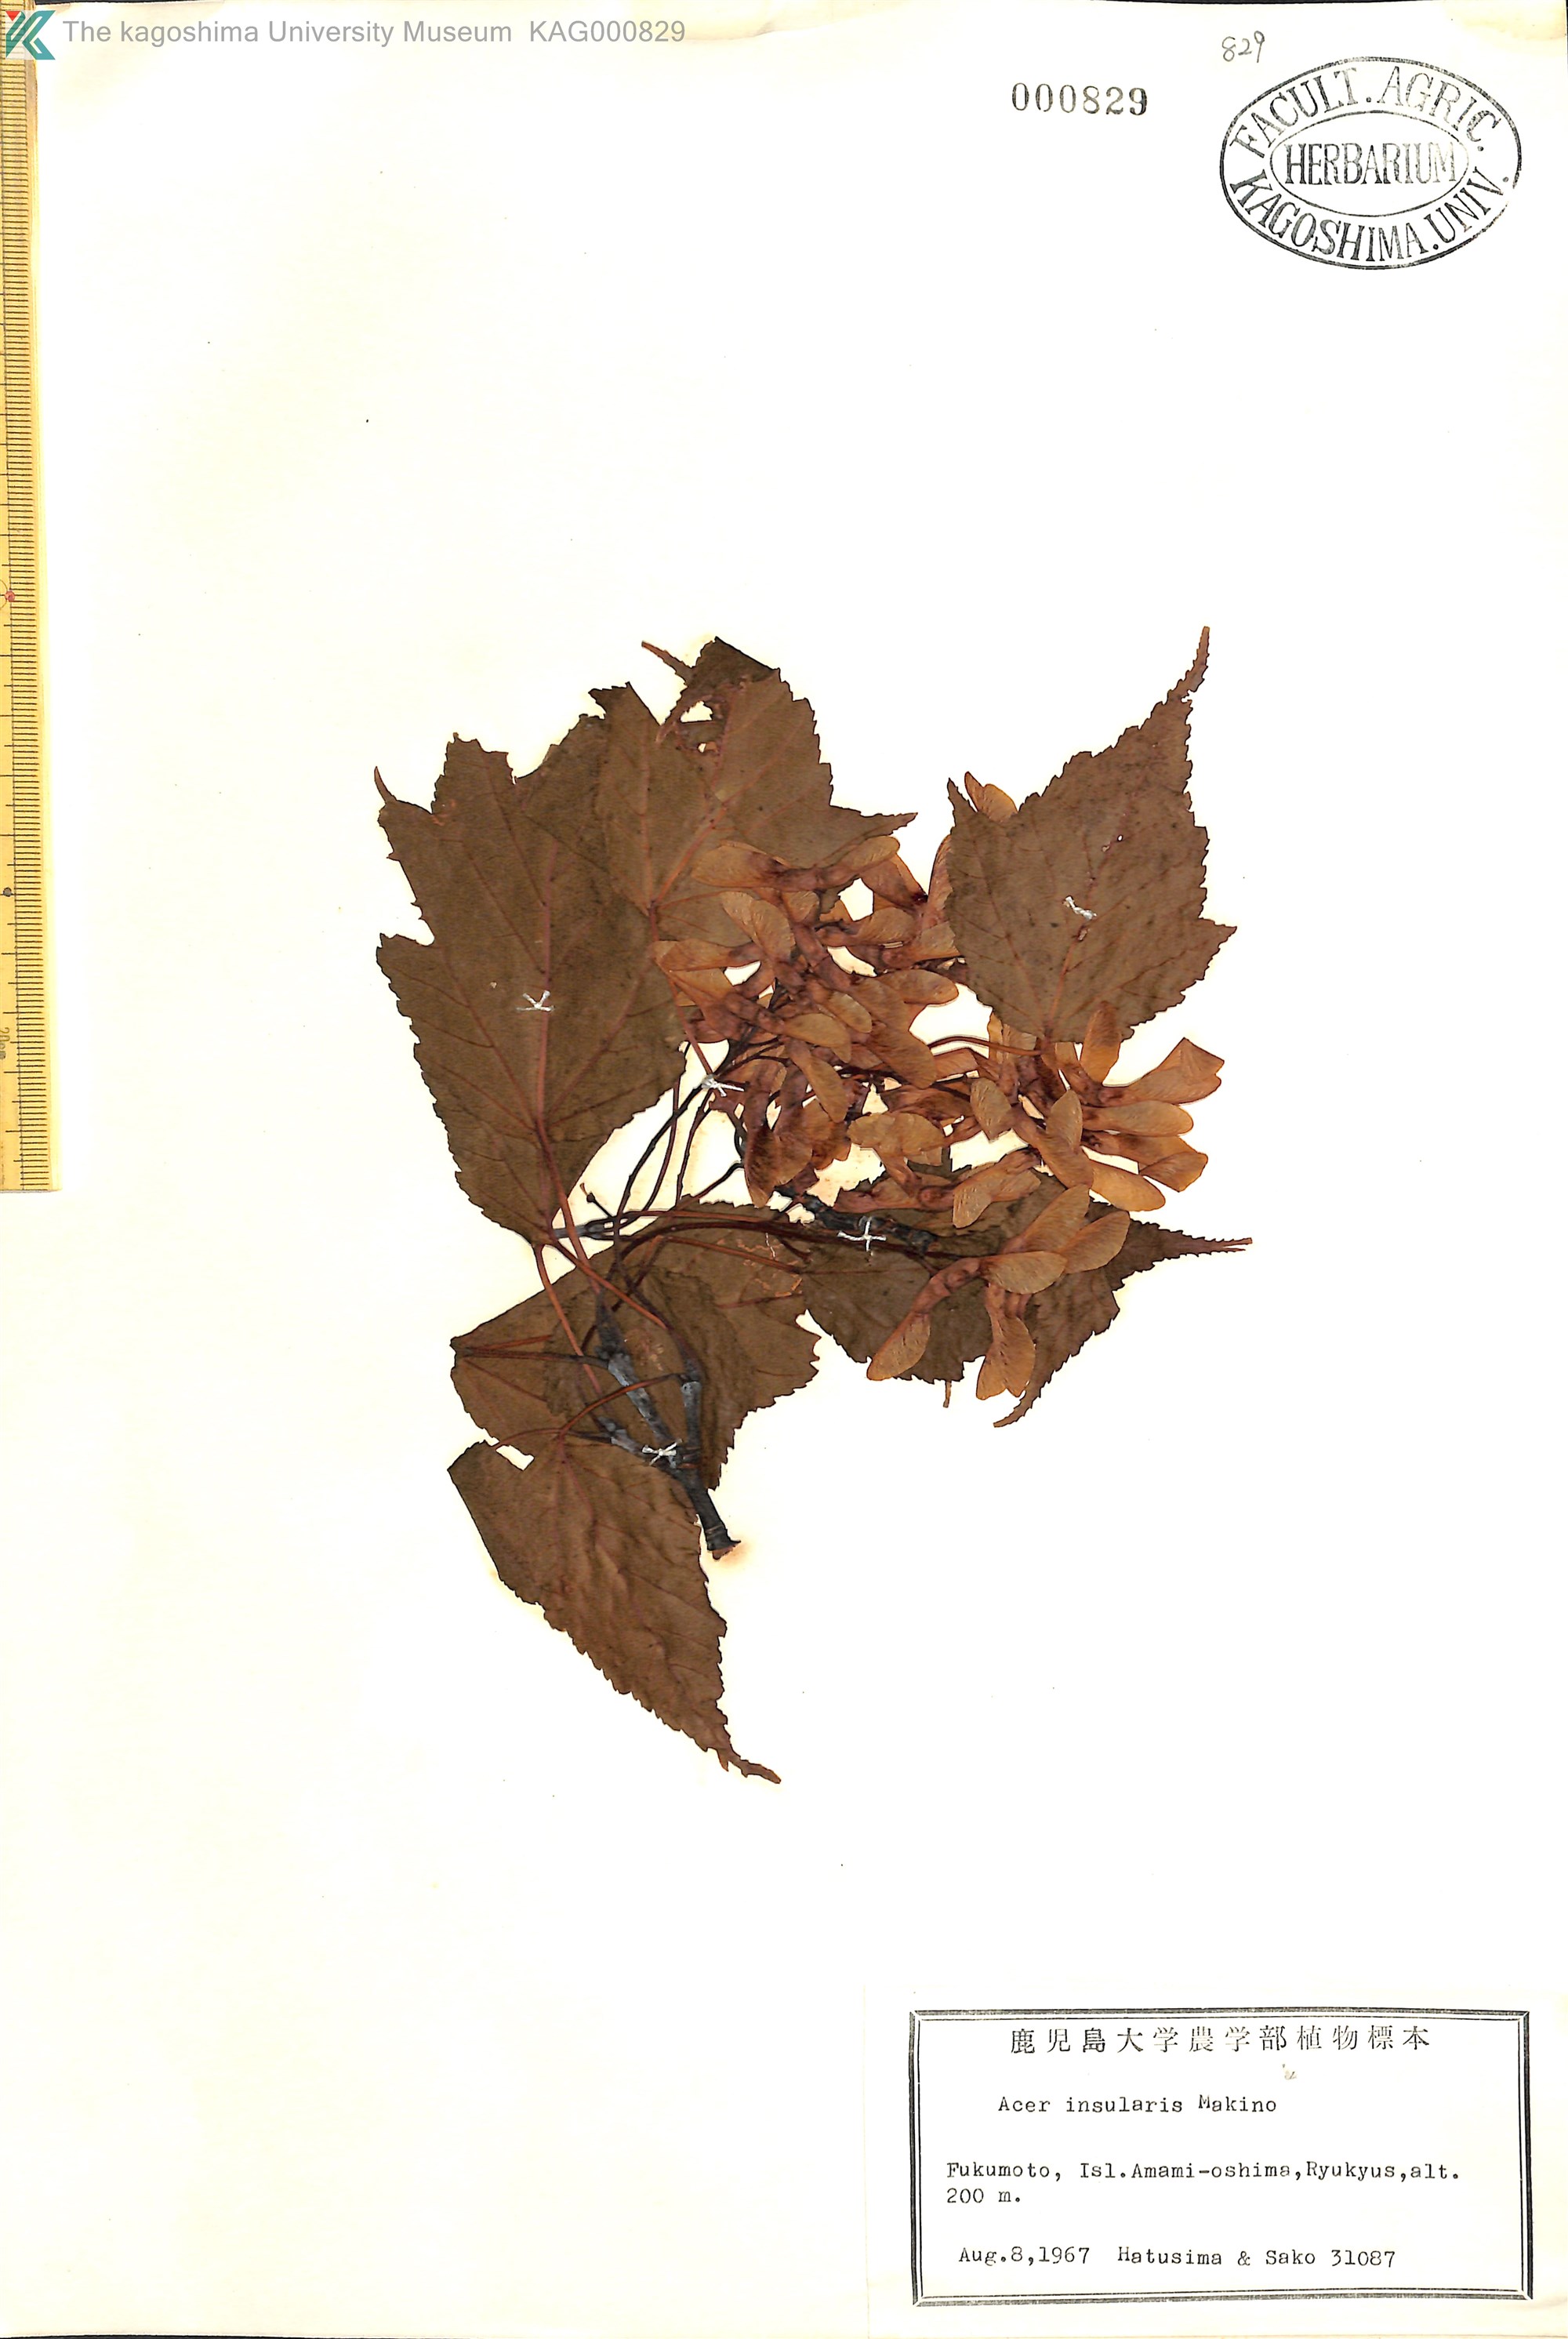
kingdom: Plantae
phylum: Tracheophyta
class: Magnoliopsida
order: Sapindales
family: Sapindaceae
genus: Acer
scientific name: Acer caudatifolium
